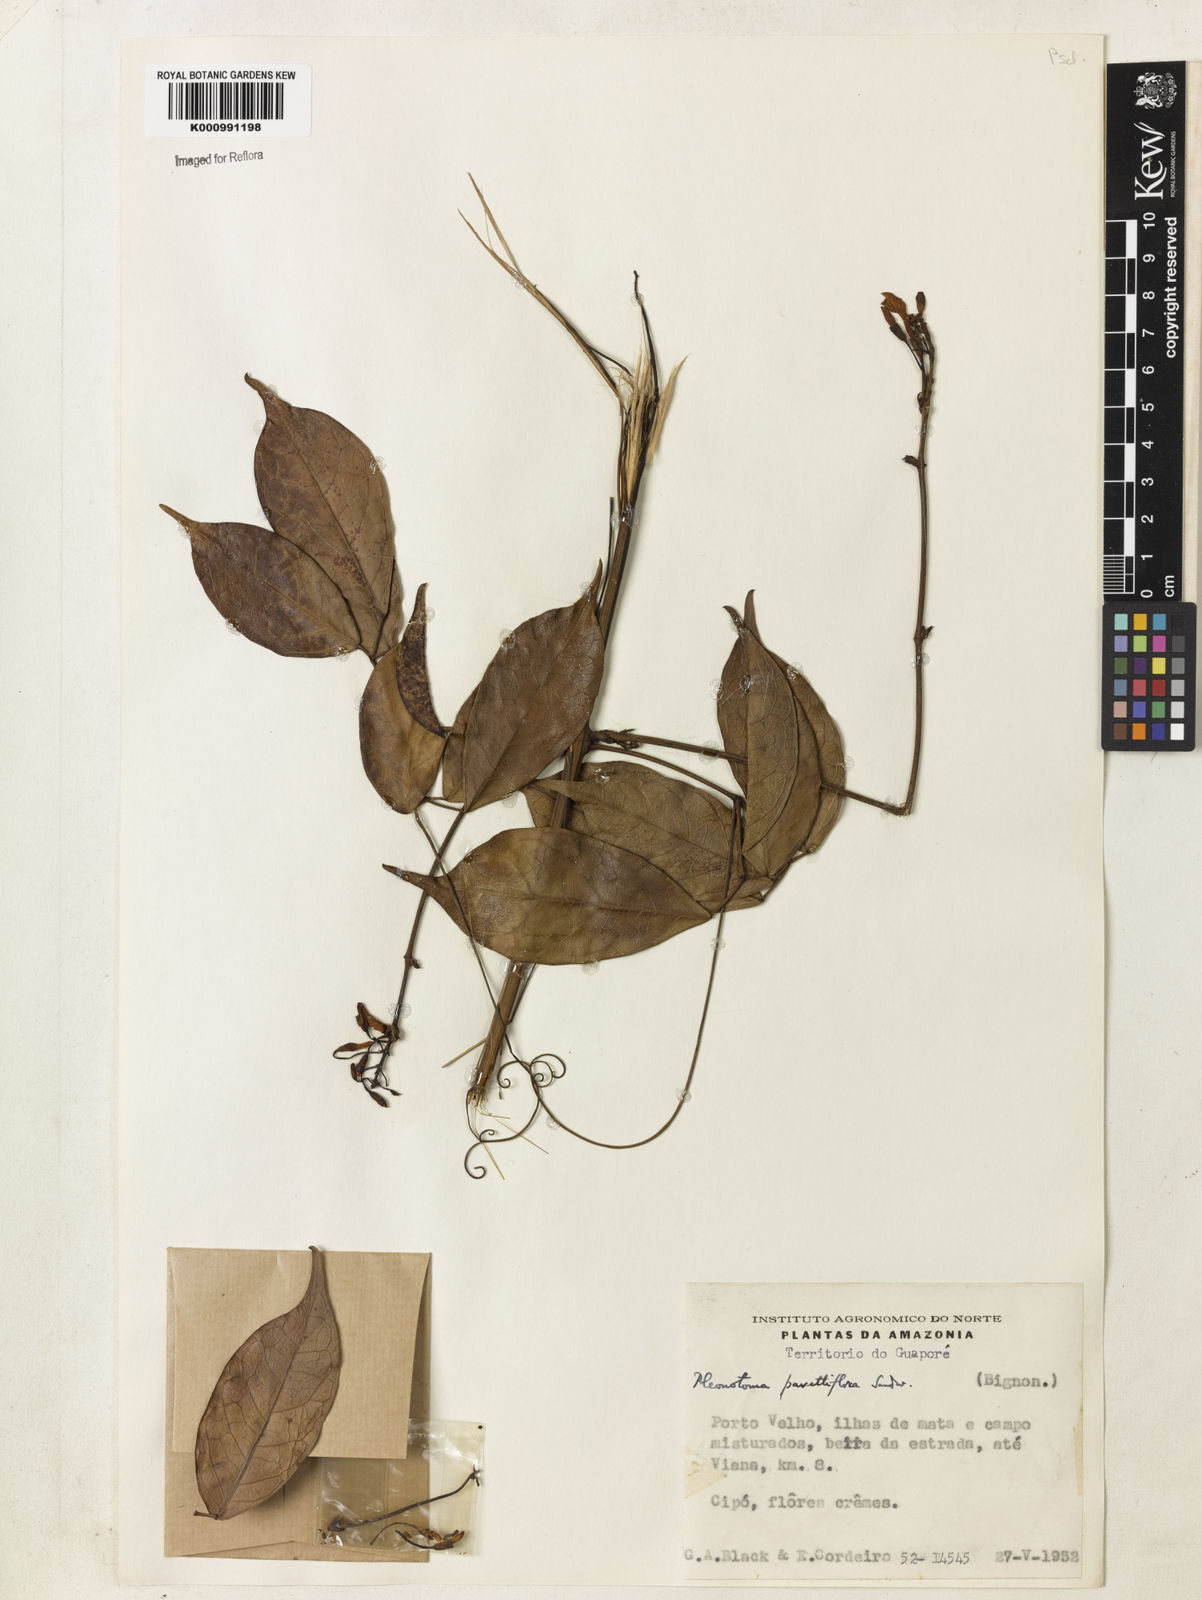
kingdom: Plantae
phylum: Tracheophyta
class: Magnoliopsida
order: Lamiales
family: Bignoniaceae
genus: Pleonotoma
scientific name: Pleonotoma pavettiflora
